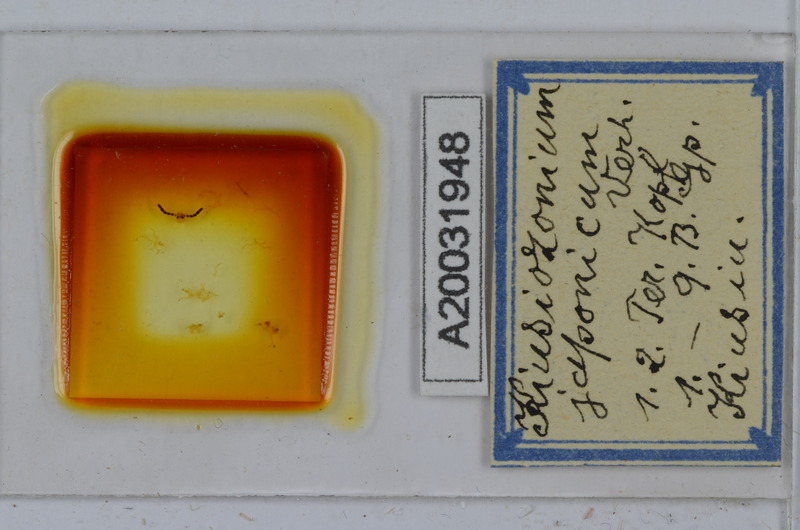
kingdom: Animalia
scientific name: Animalia
